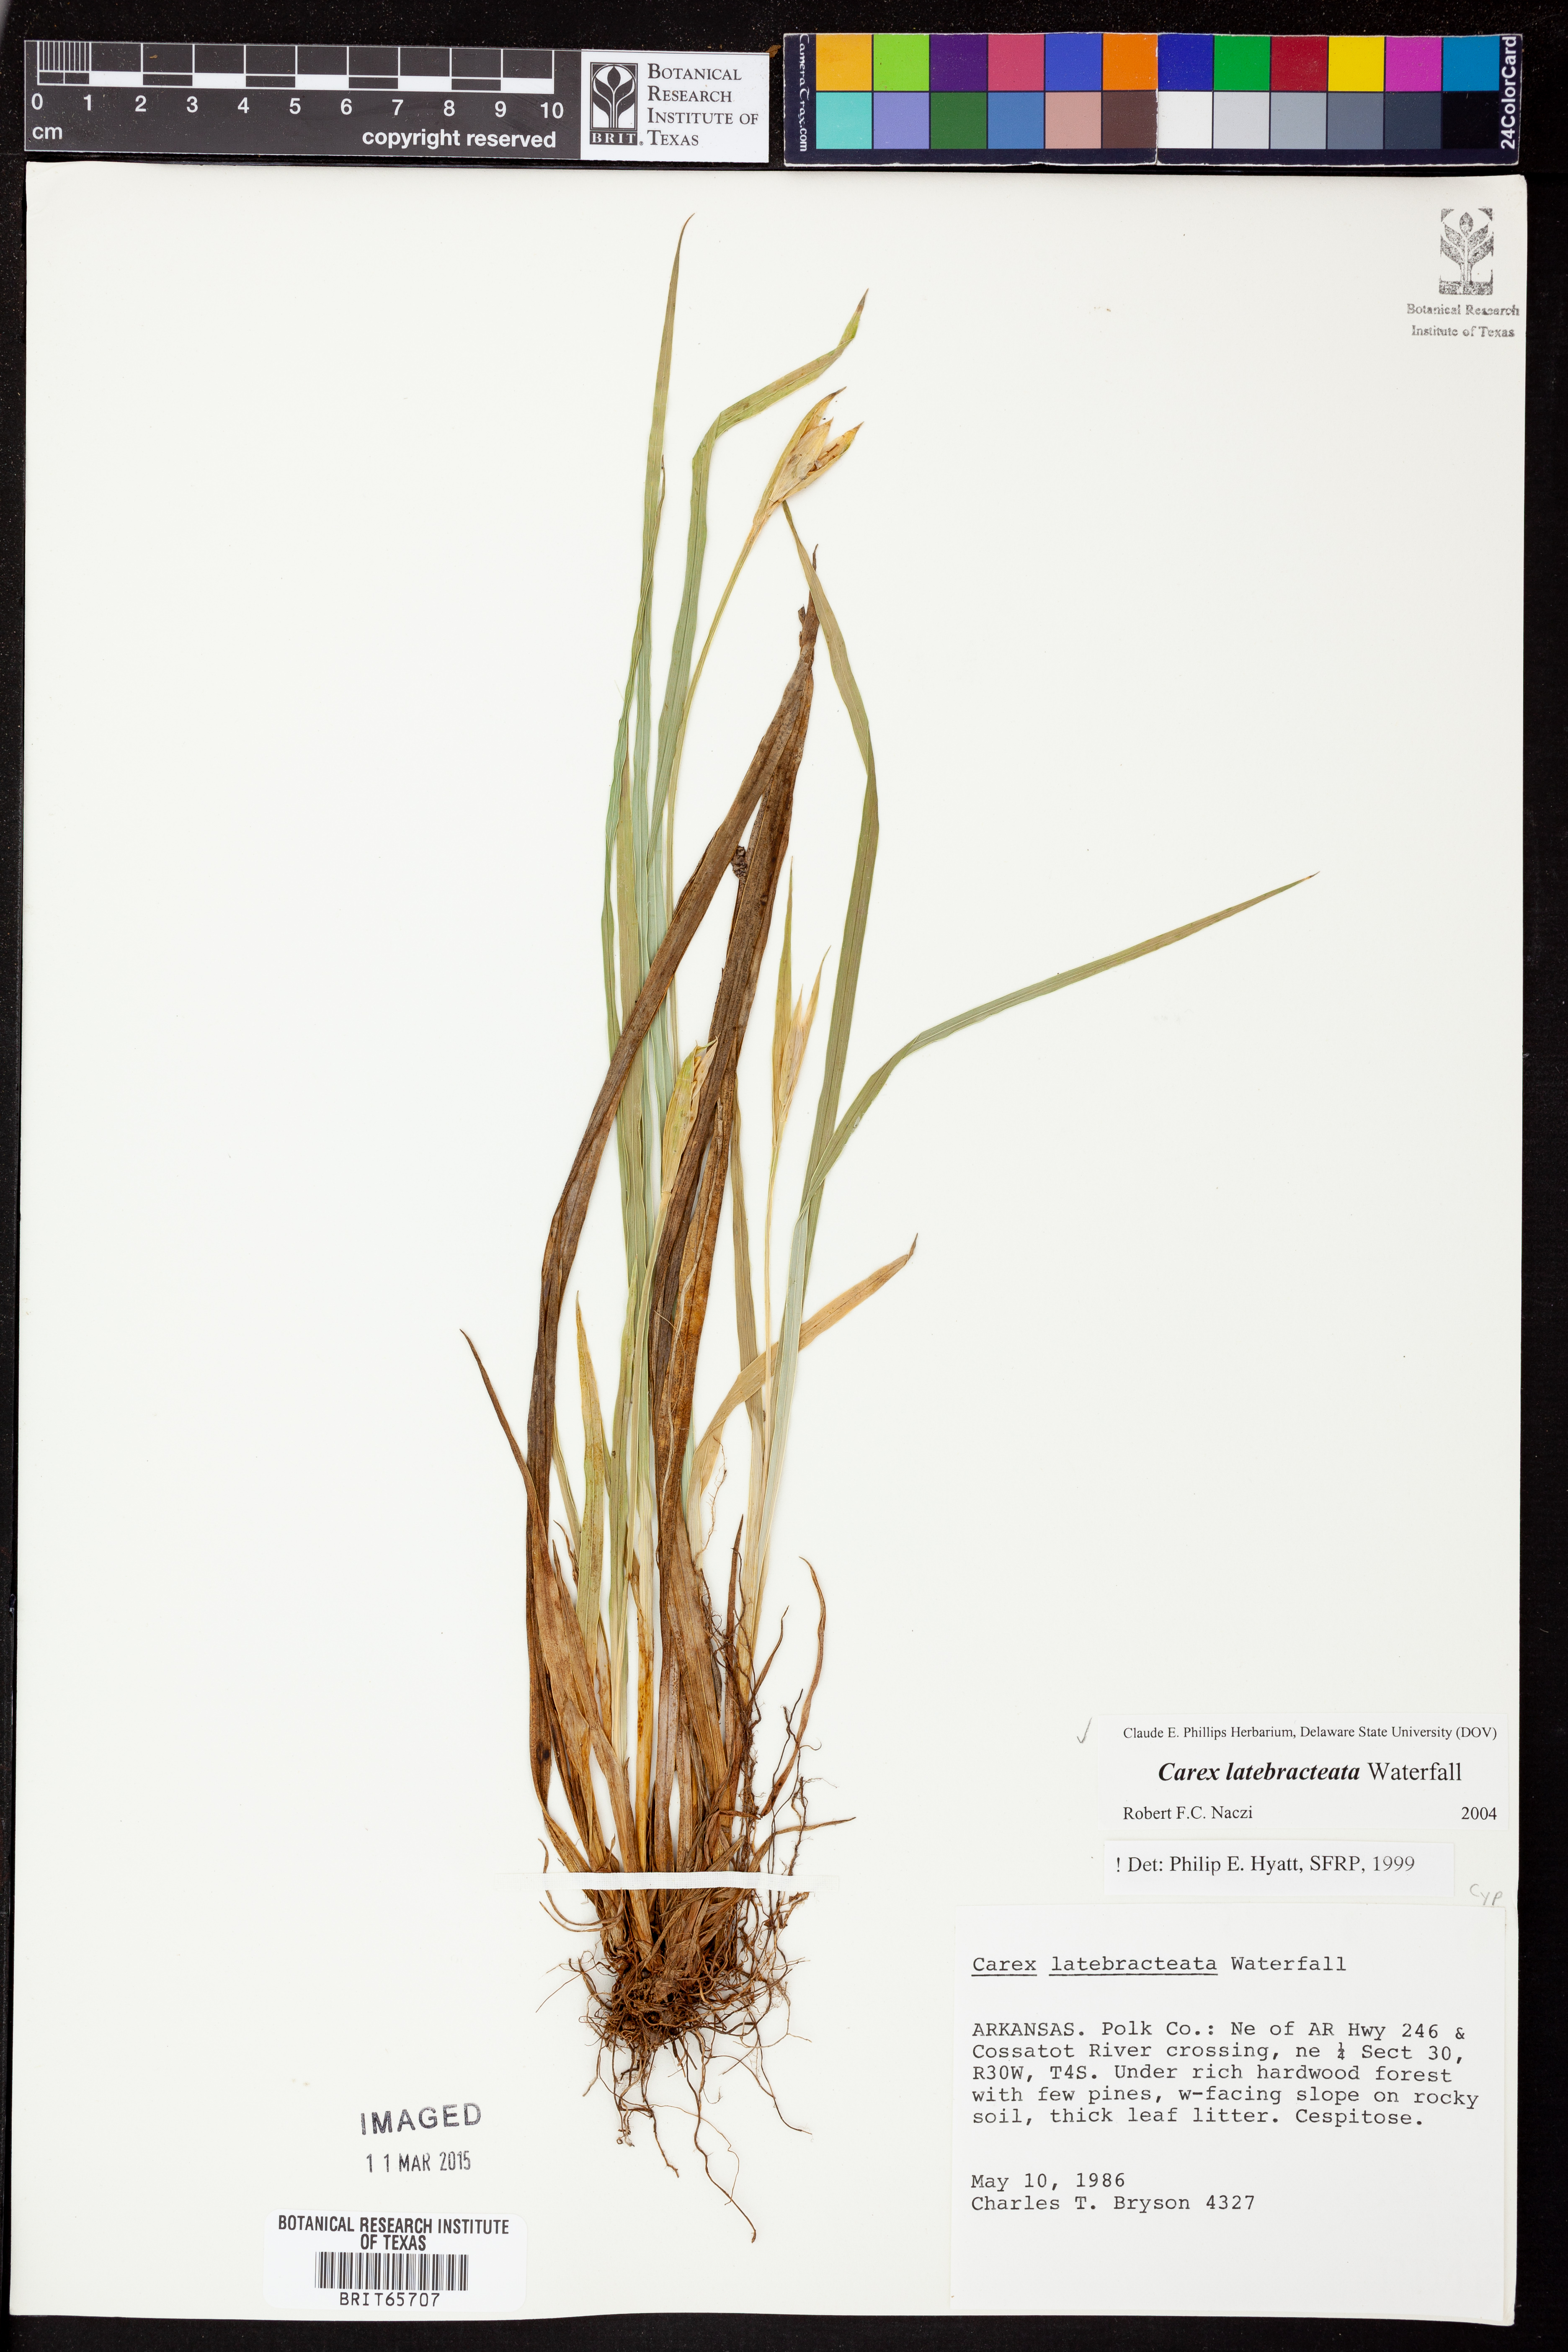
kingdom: Plantae
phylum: Tracheophyta
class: Liliopsida
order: Poales
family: Cyperaceae
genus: Carex
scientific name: Carex latebracteata
